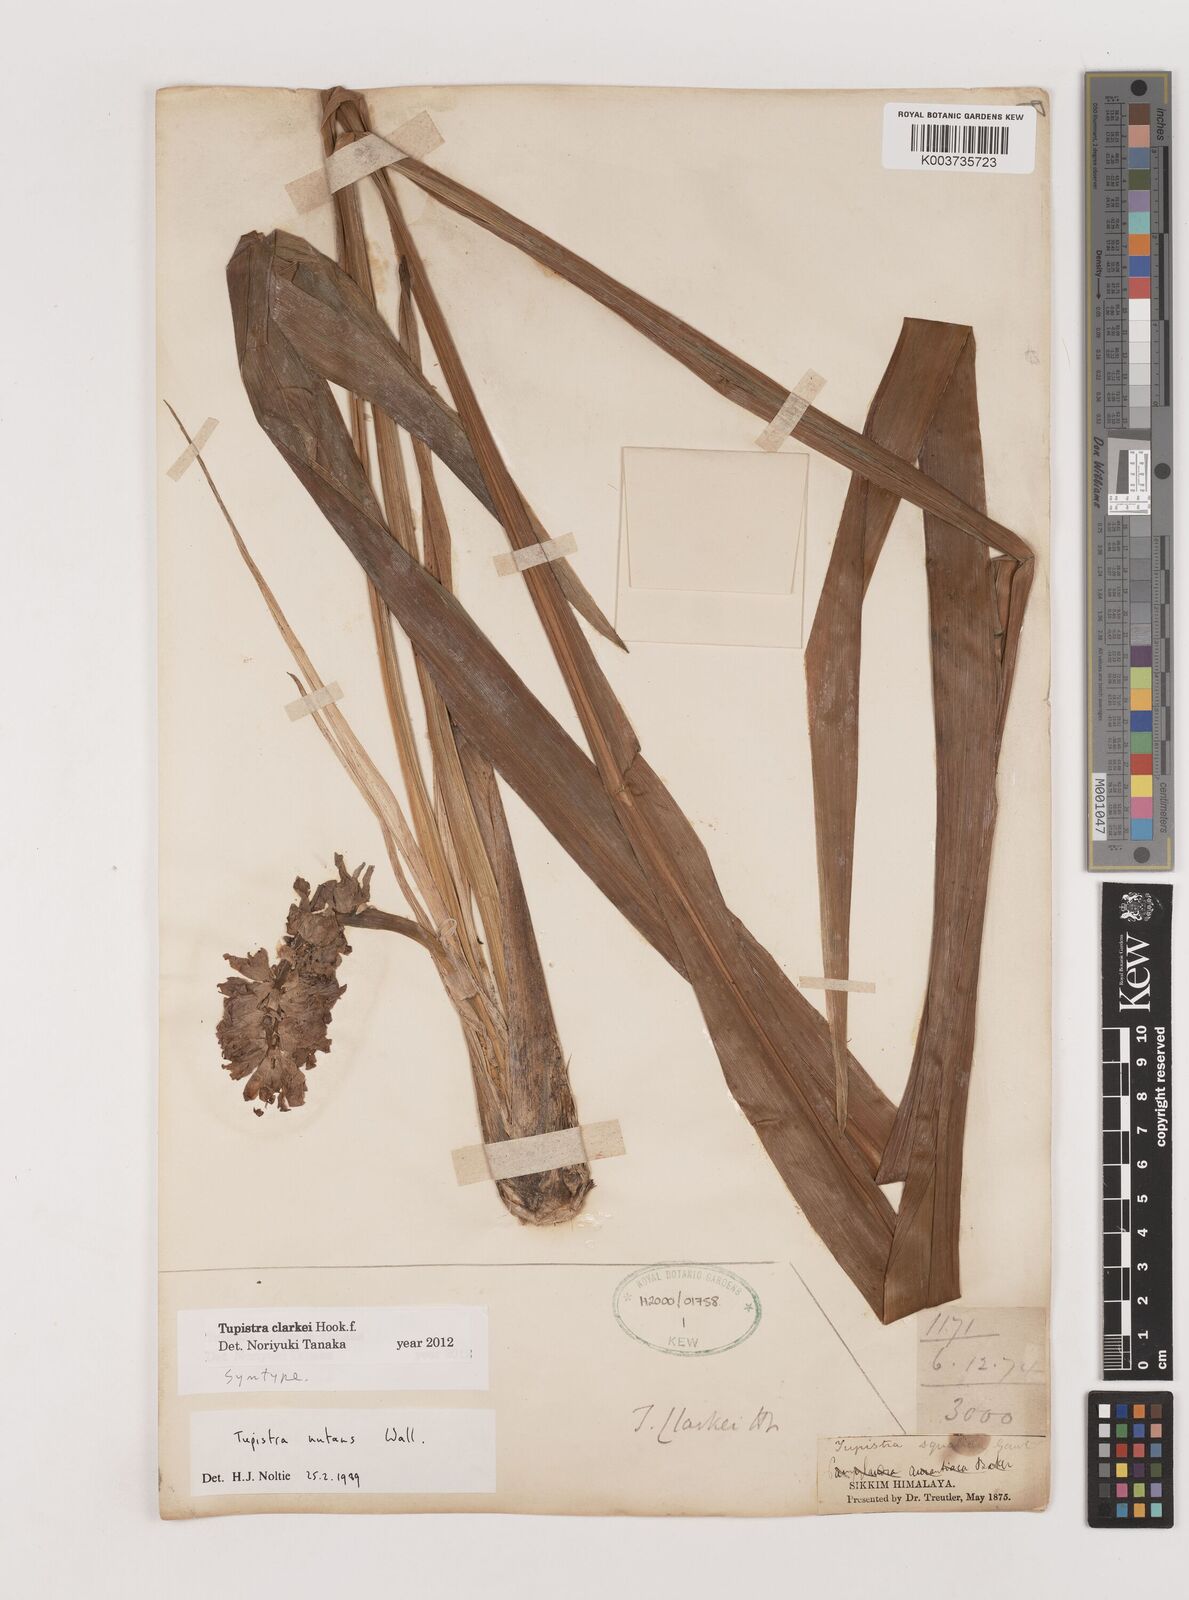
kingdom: Plantae
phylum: Tracheophyta
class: Liliopsida
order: Asparagales
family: Asparagaceae
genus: Tupistra
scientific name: Tupistra clarkei
